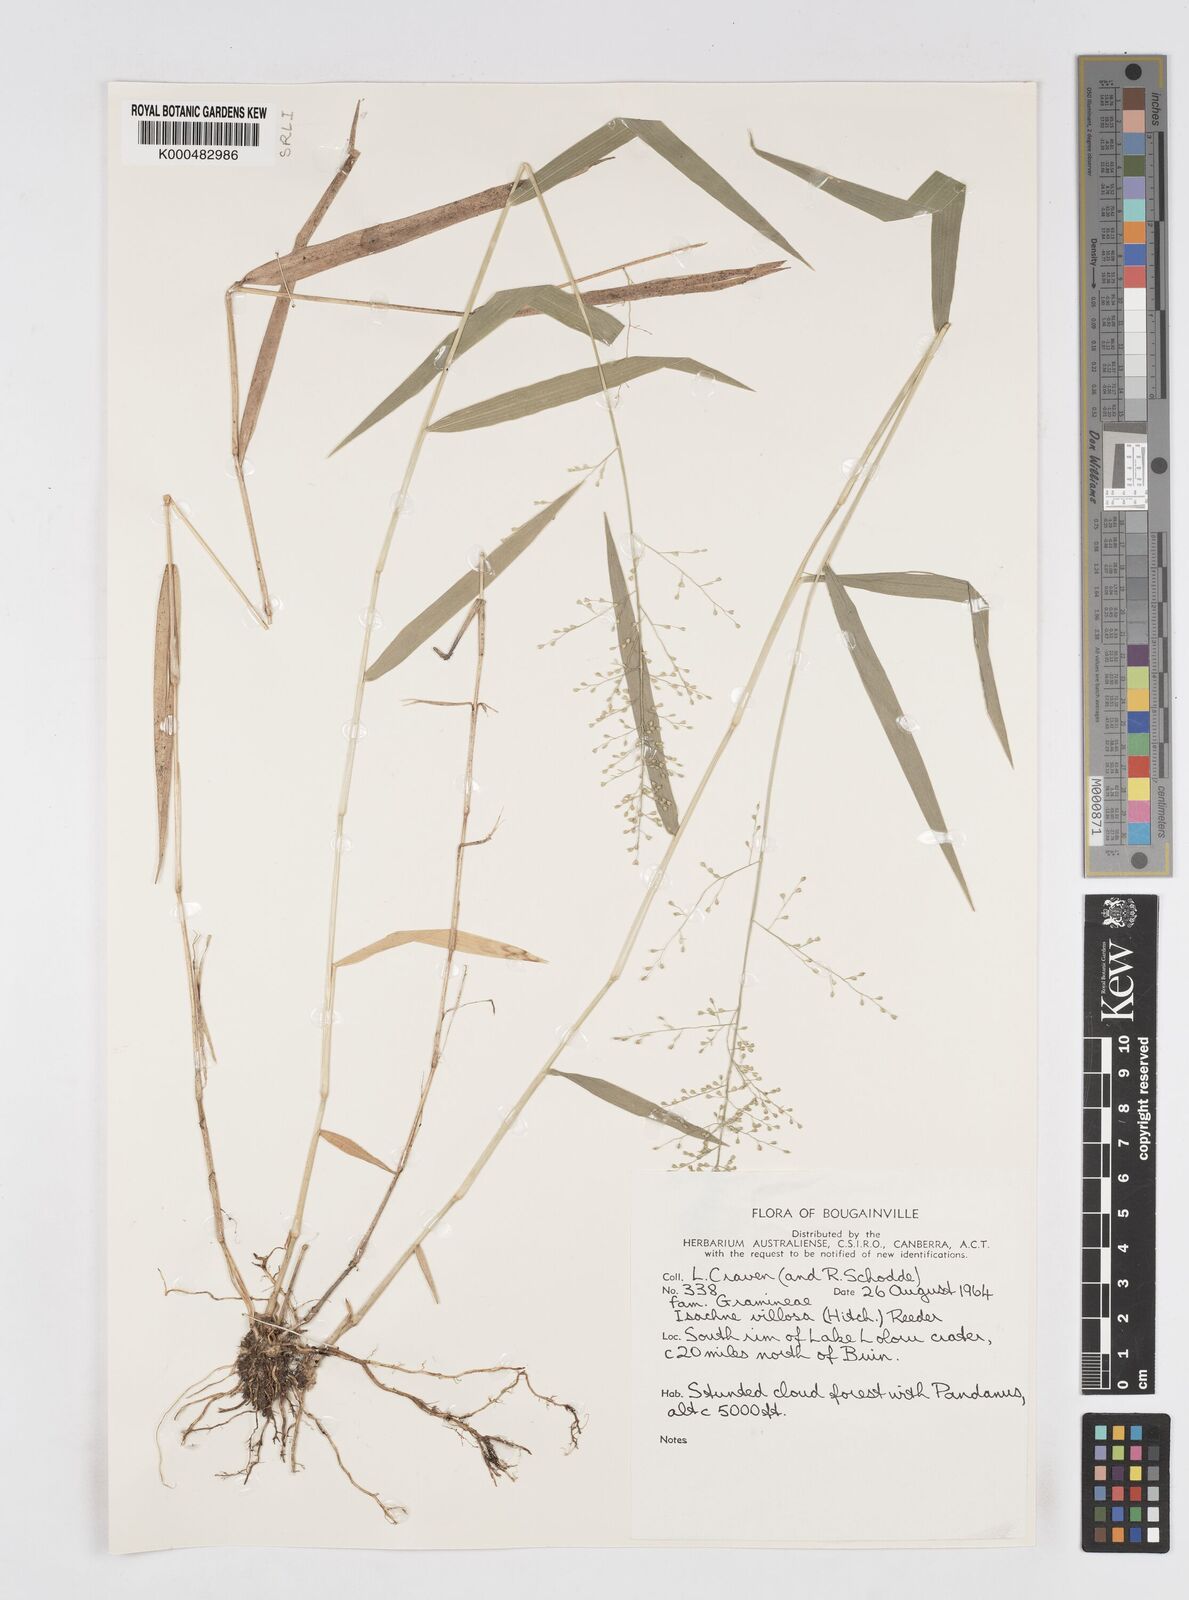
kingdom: Plantae
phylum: Tracheophyta
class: Liliopsida
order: Poales
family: Poaceae
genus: Isachne
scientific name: Isachne villosa
